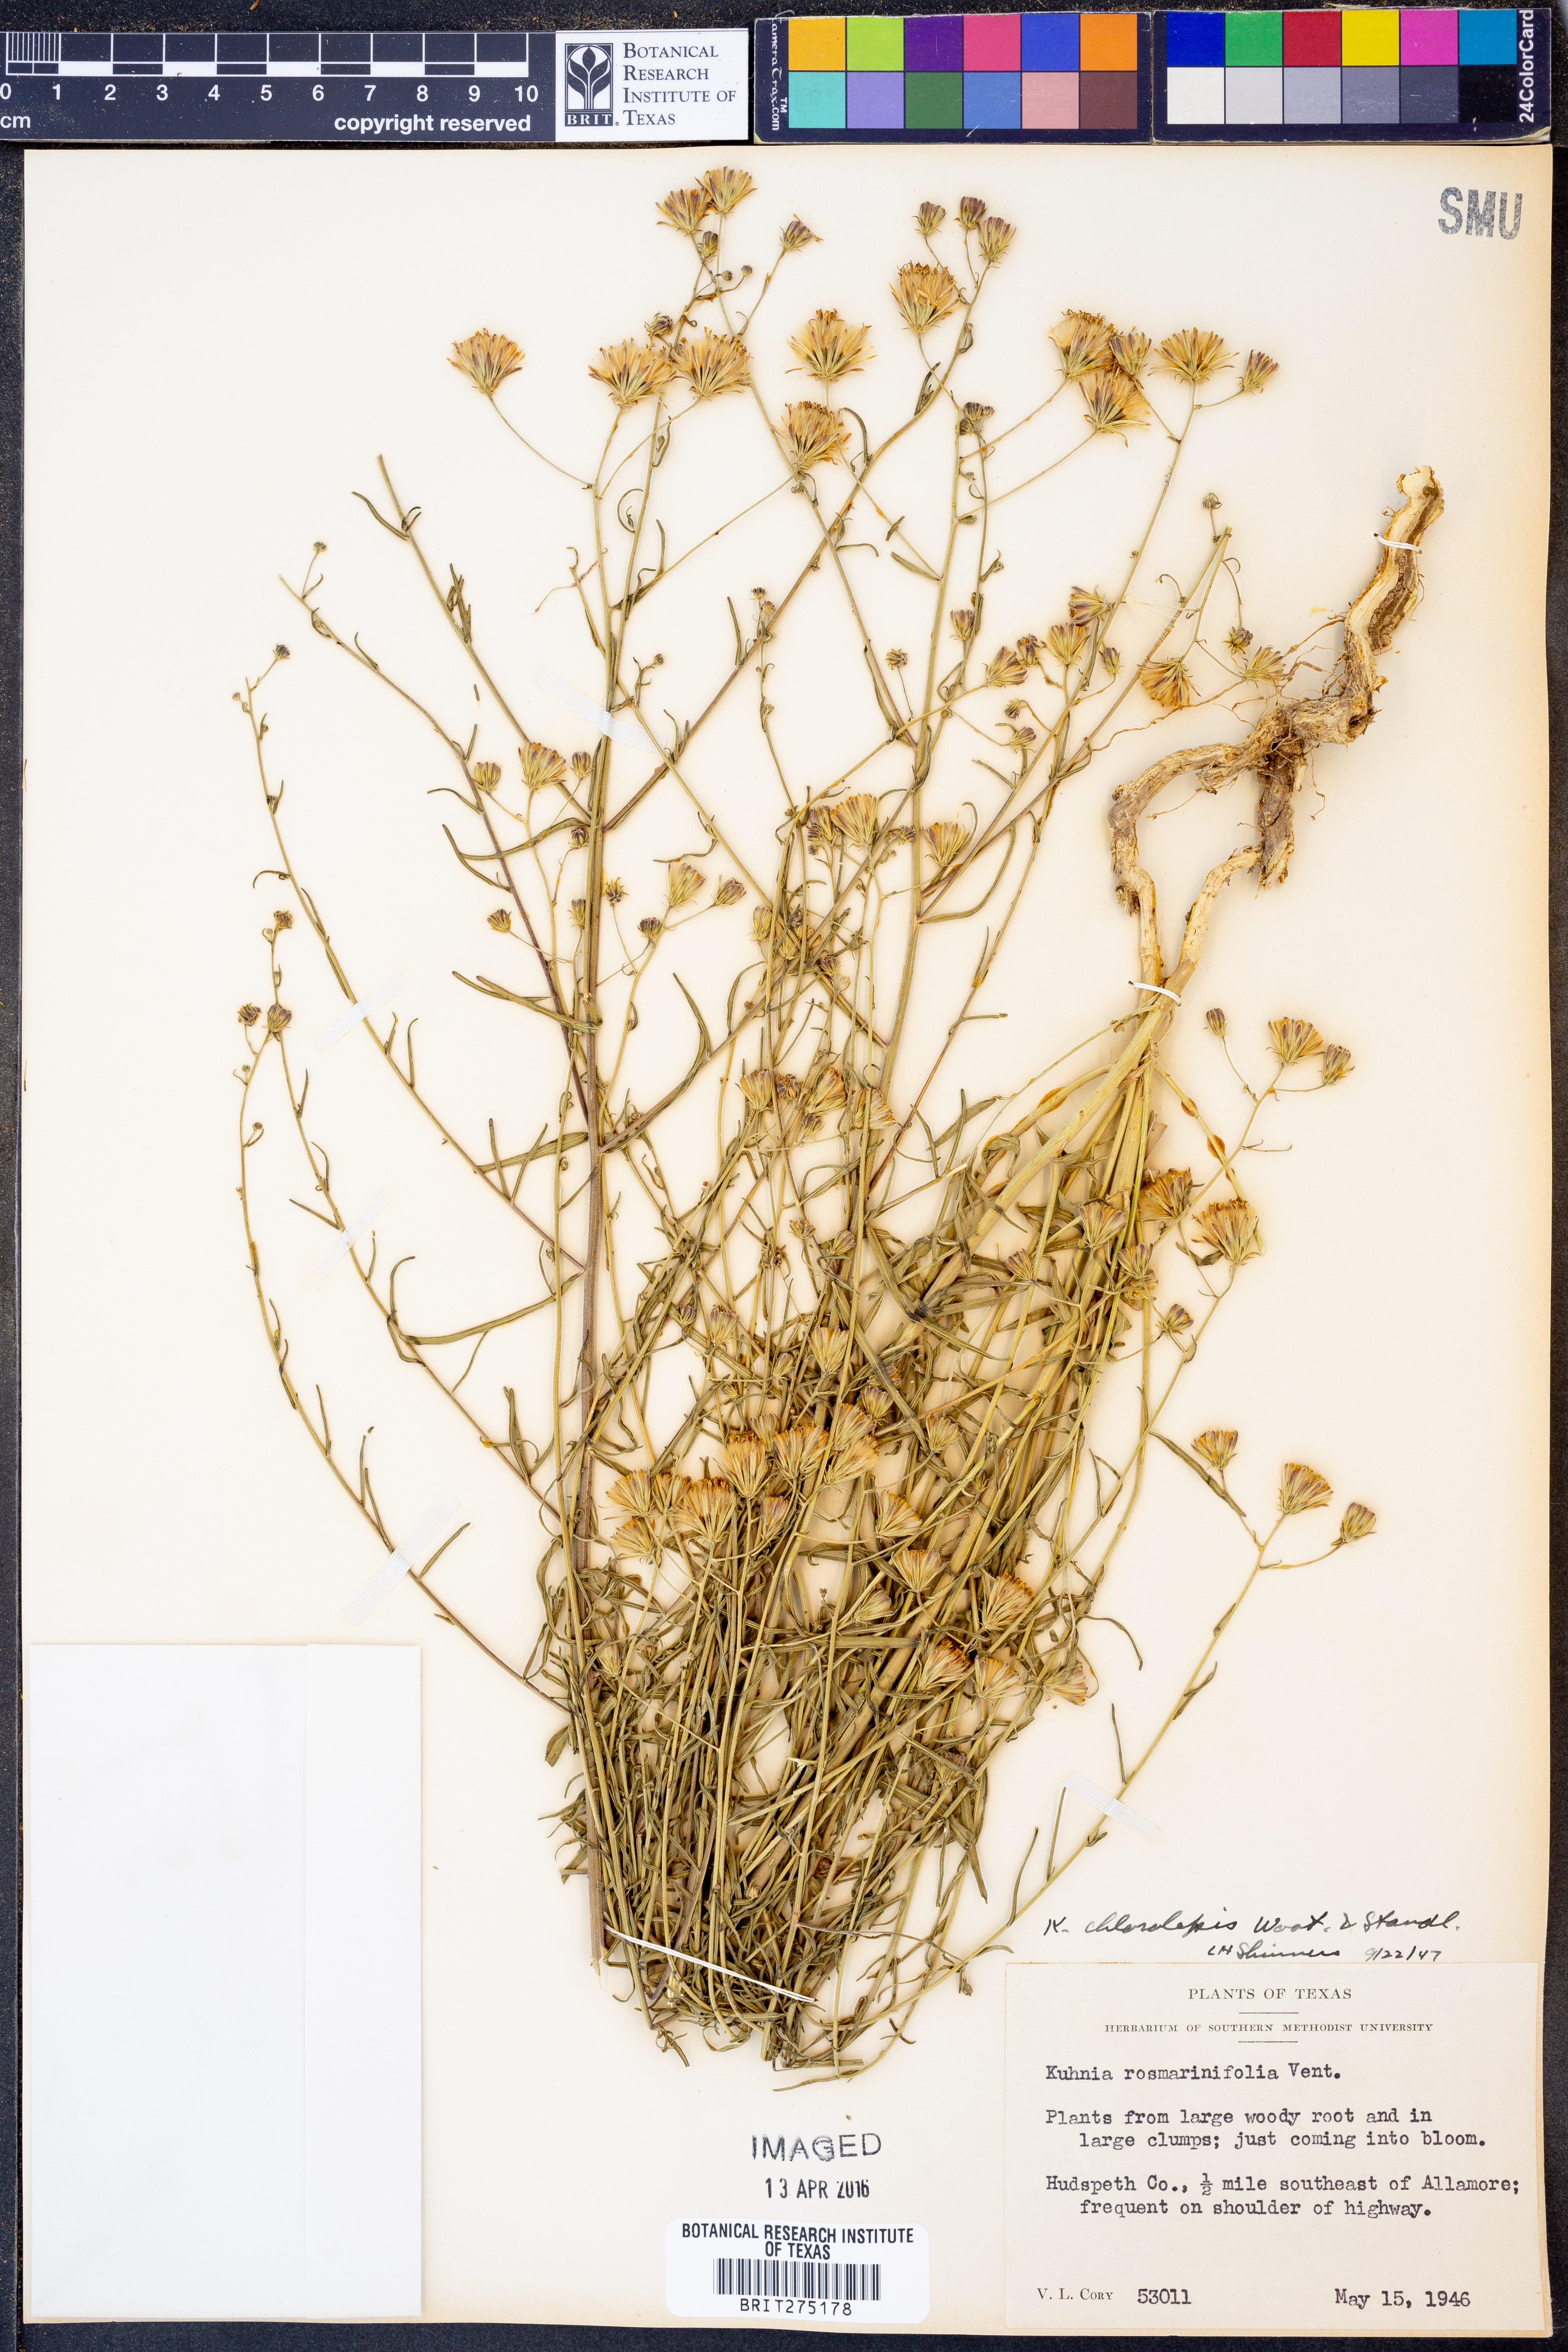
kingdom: Plantae
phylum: Tracheophyta
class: Magnoliopsida
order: Asterales
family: Asteraceae
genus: Brickellia
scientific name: Brickellia leptophylla
